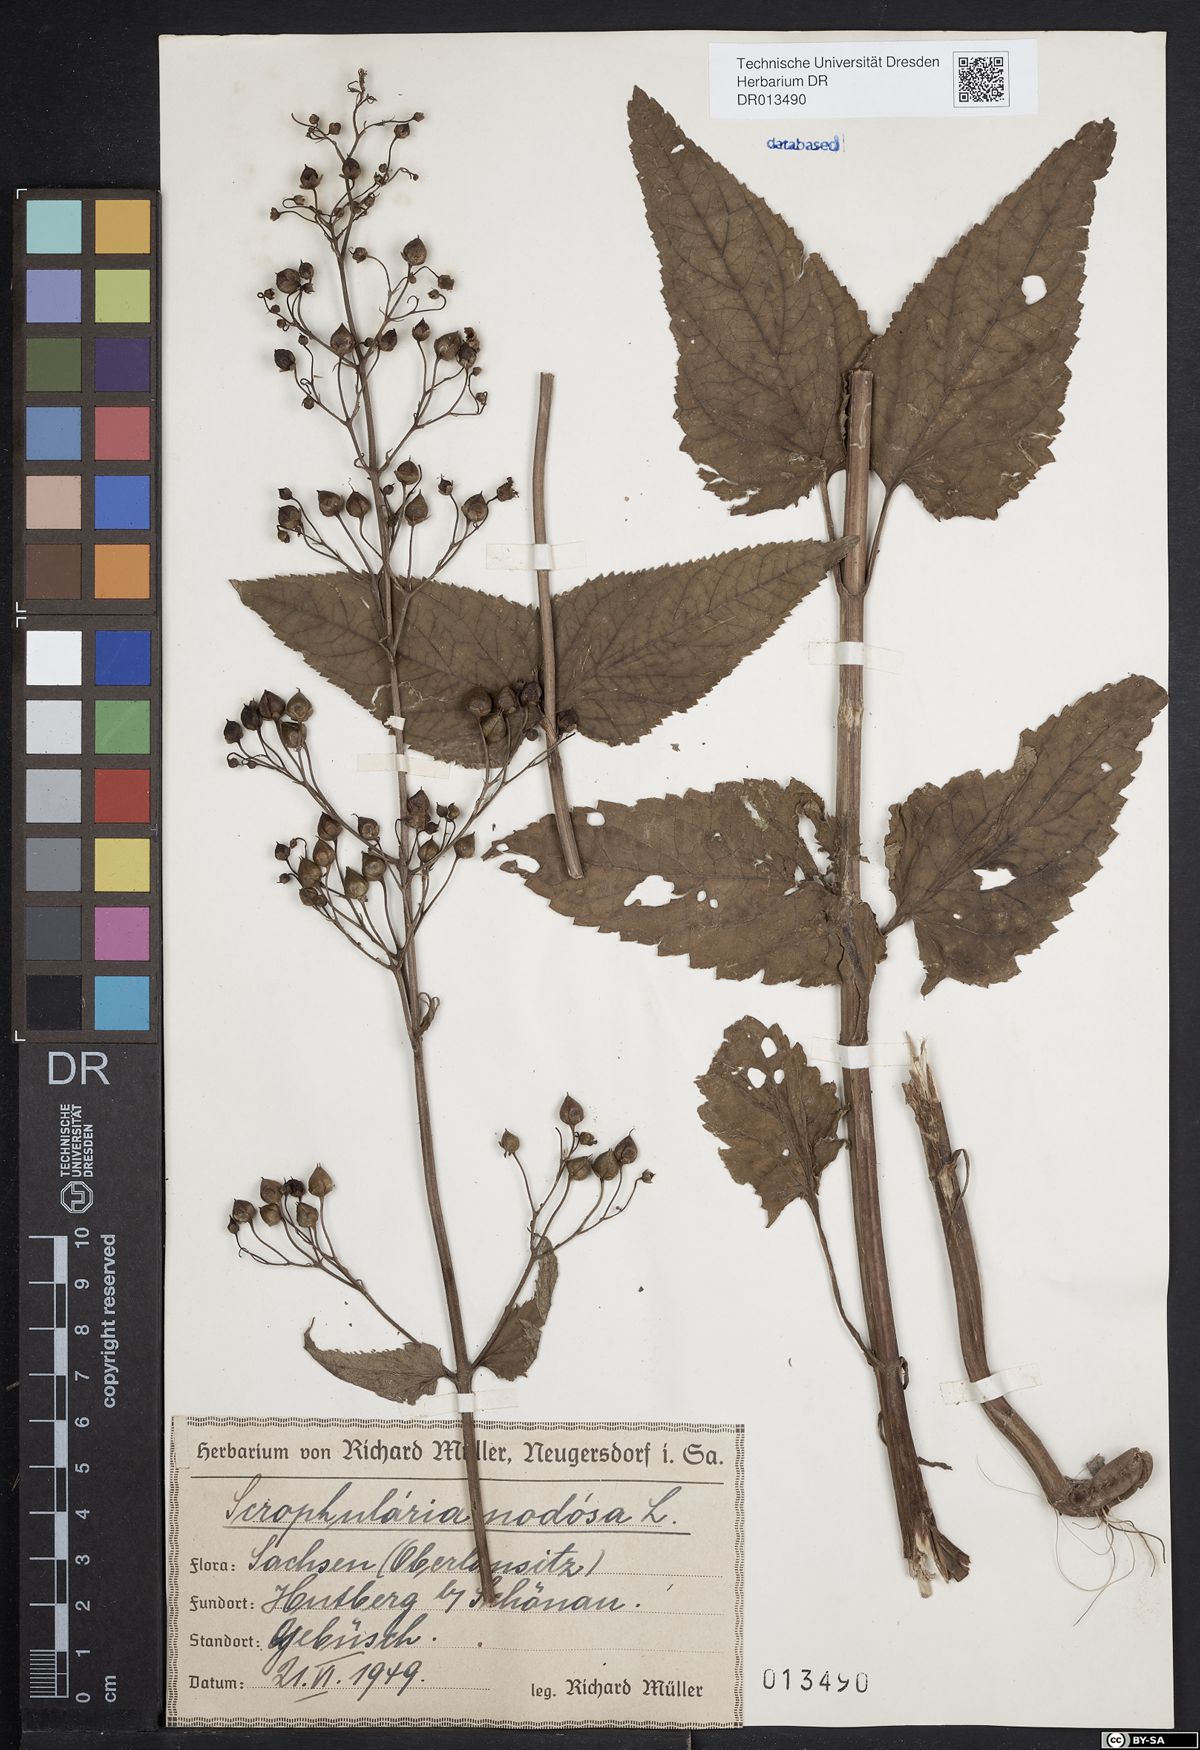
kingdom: Plantae
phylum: Tracheophyta
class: Magnoliopsida
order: Lamiales
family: Scrophulariaceae
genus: Scrophularia
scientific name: Scrophularia nodosa
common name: Common figwort
